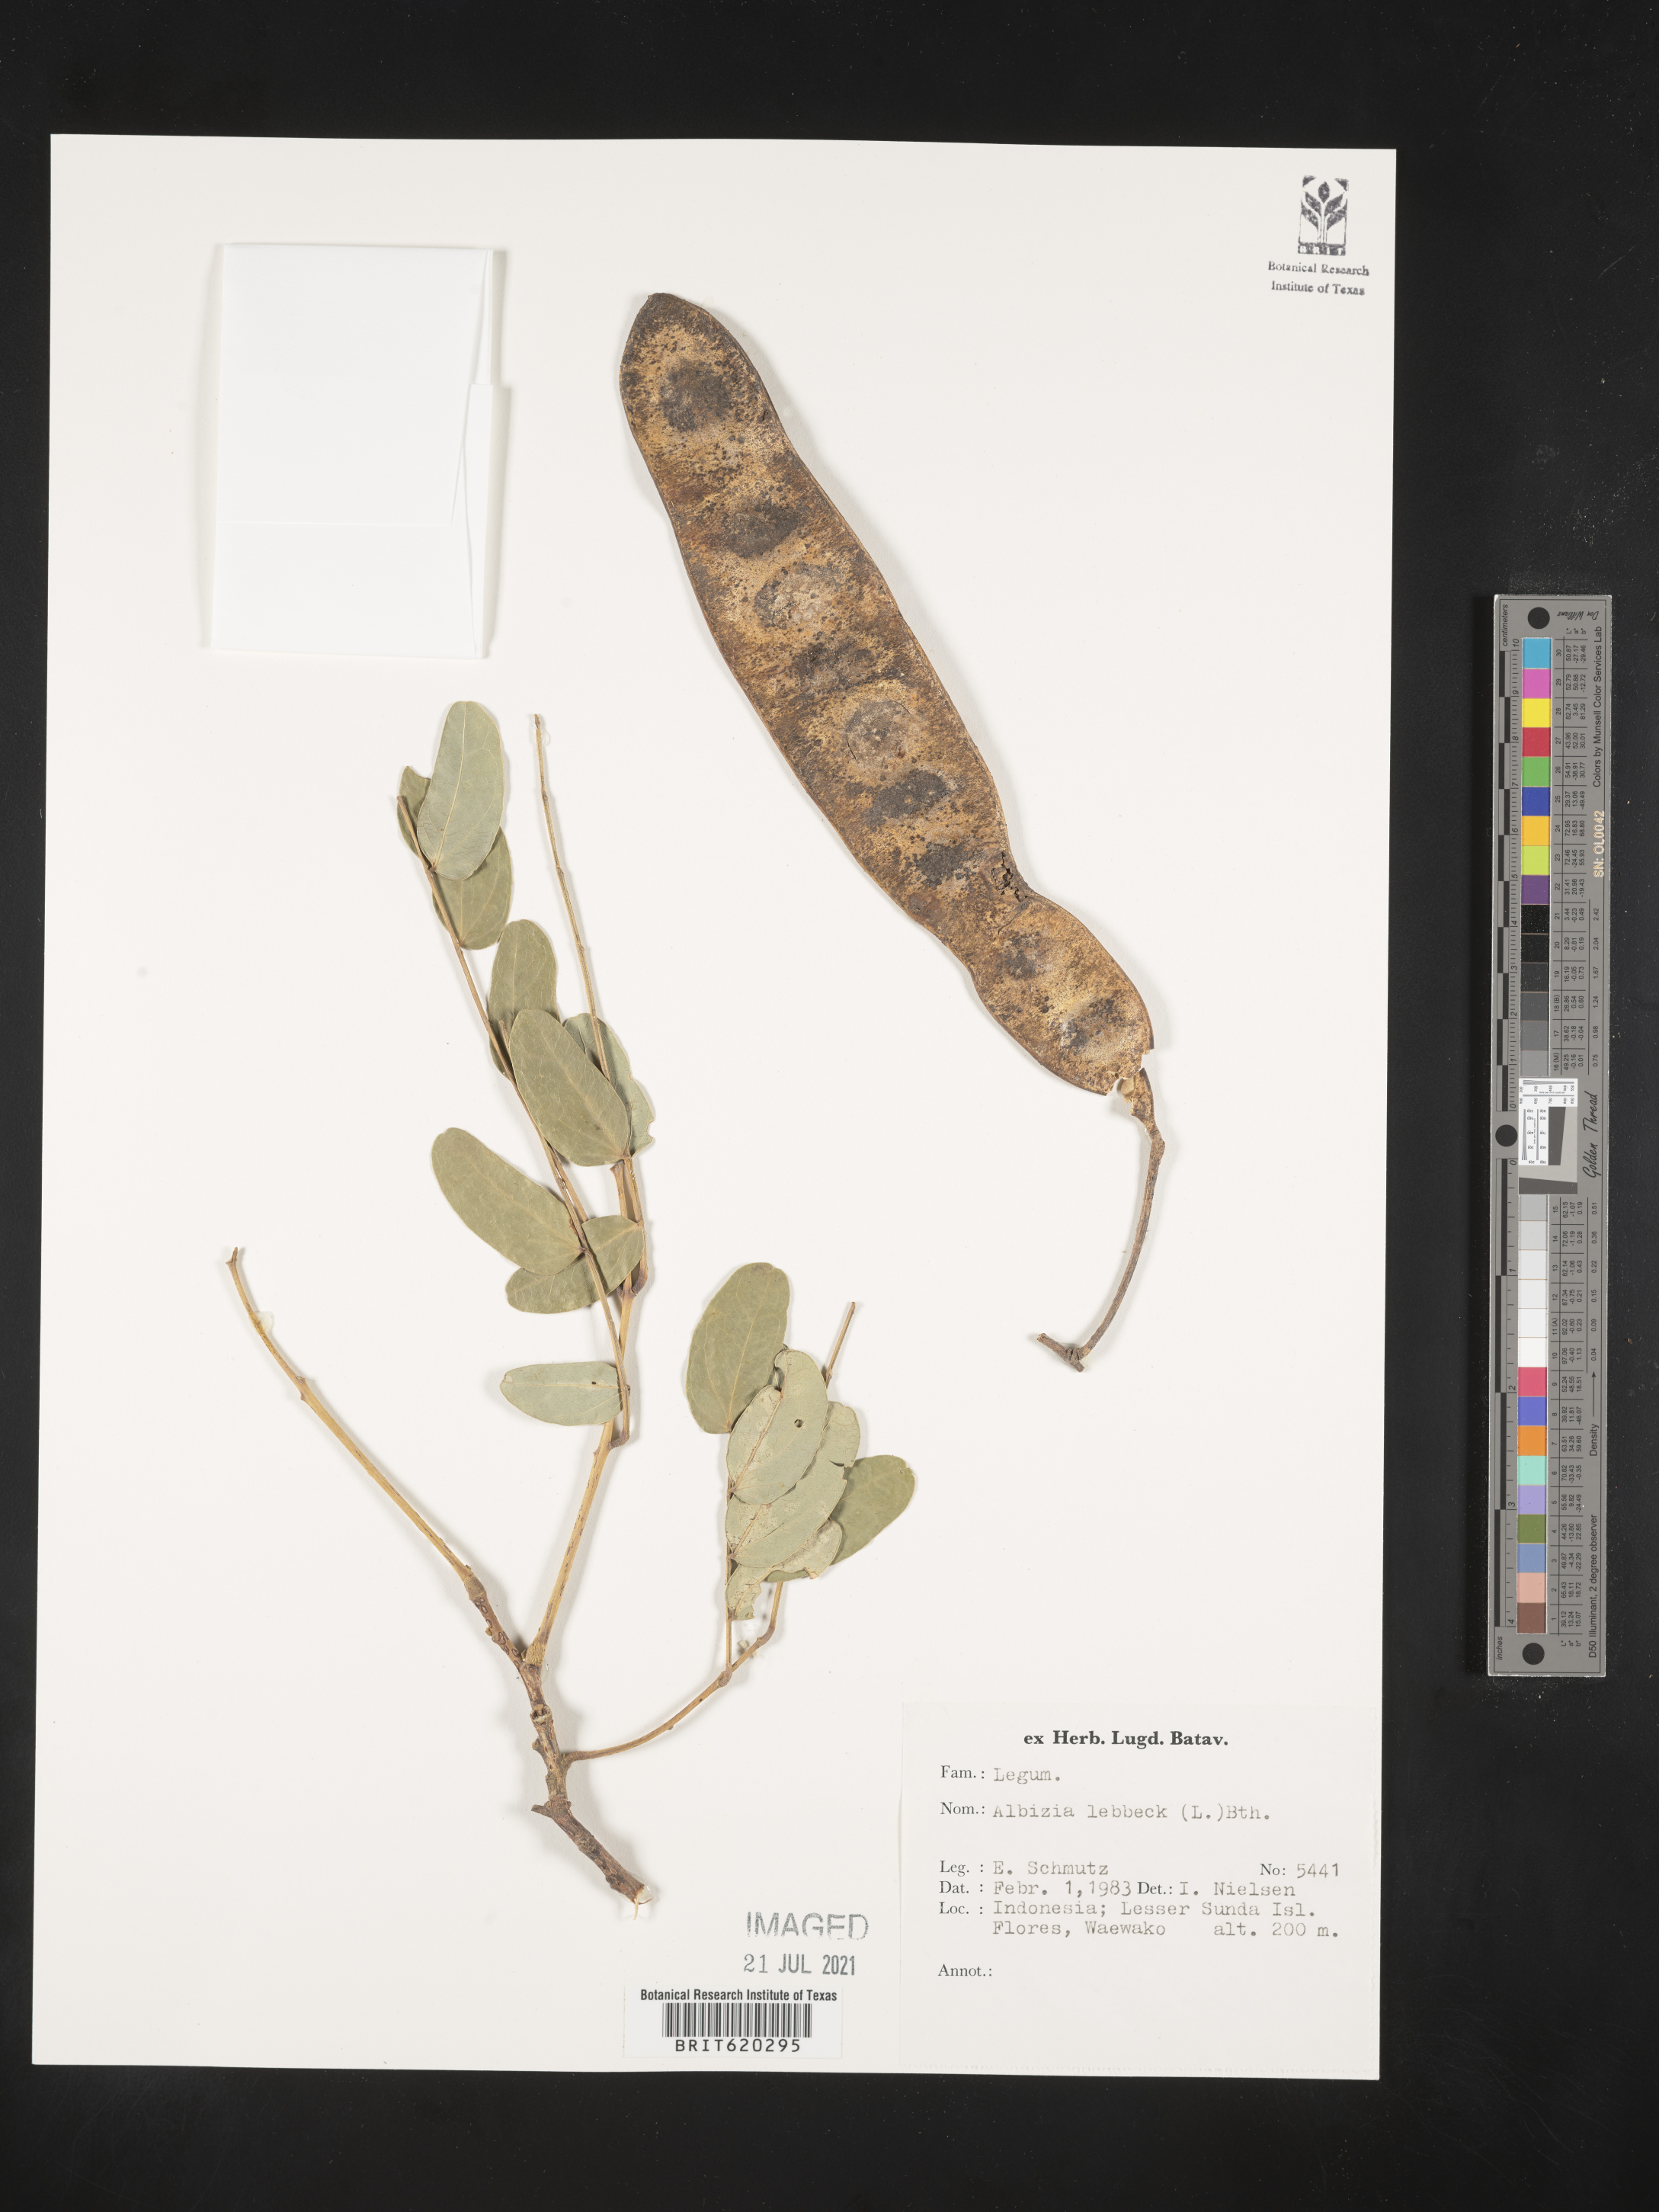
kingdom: Plantae
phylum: Tracheophyta
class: Magnoliopsida
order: Fabales
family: Fabaceae
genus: Albizia
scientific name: Albizia lebbeck
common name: Woman's tongue
